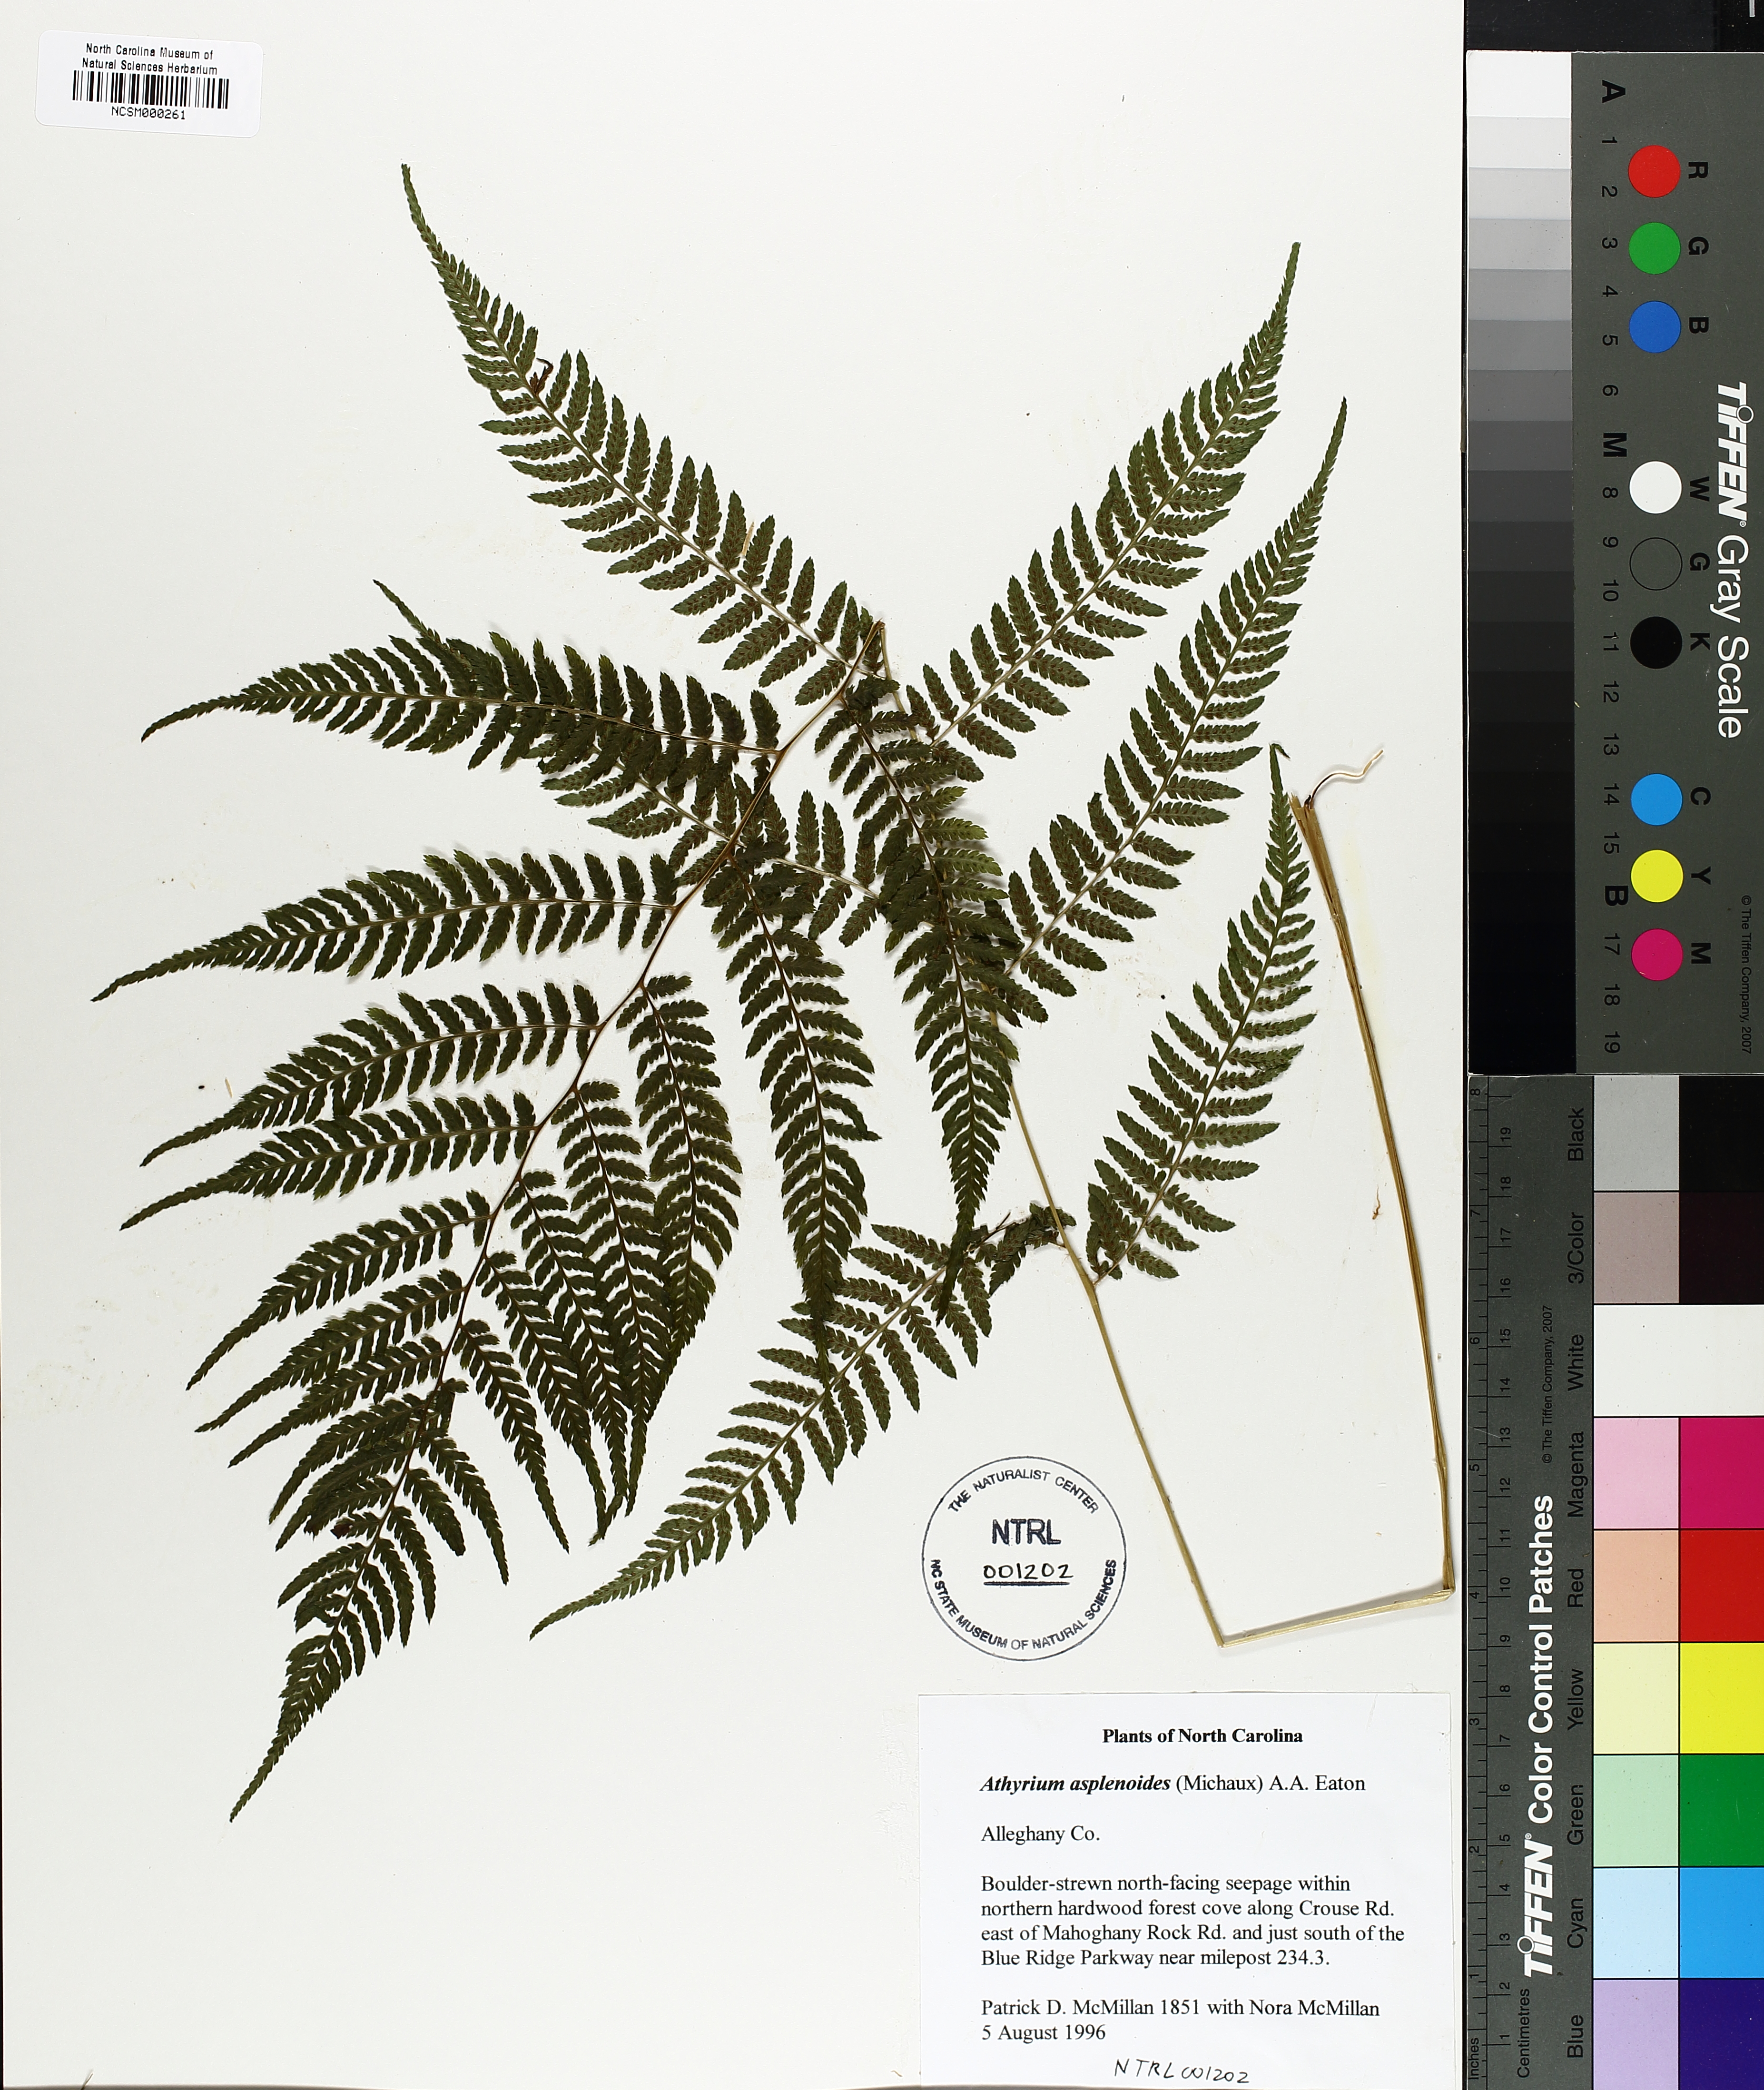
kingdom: Plantae
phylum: Tracheophyta
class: Polypodiopsida
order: Polypodiales
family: Athyriaceae
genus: Athyrium
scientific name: Athyrium asplenioides
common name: Southern lady fern
